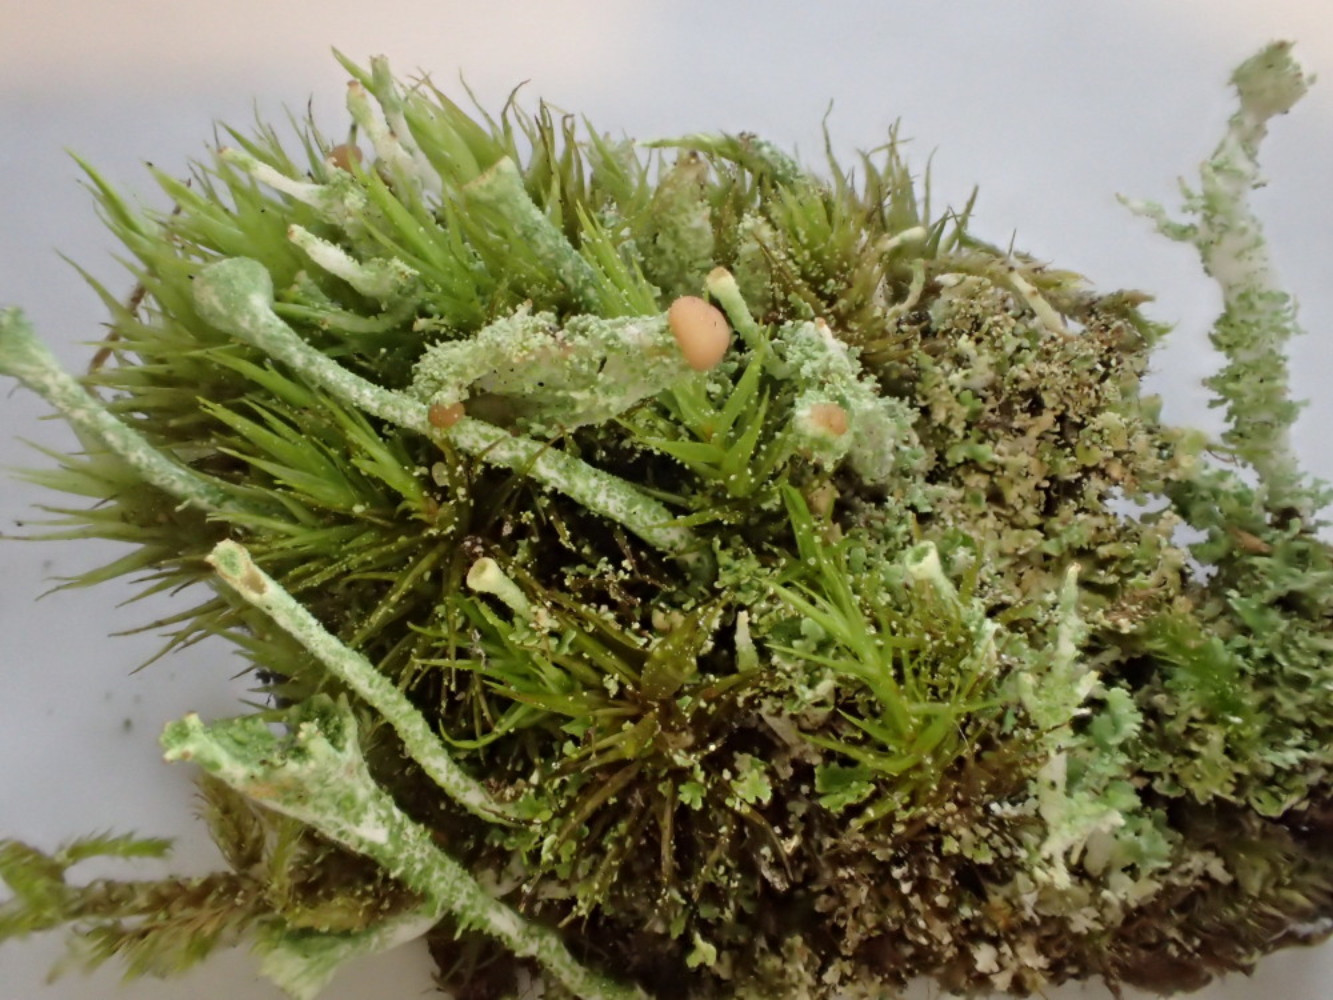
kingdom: Fungi
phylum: Ascomycota
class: Lecanoromycetes
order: Lecanorales
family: Cladoniaceae
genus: Cladonia
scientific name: Cladonia ramulosa
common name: kliddet bægerlav
